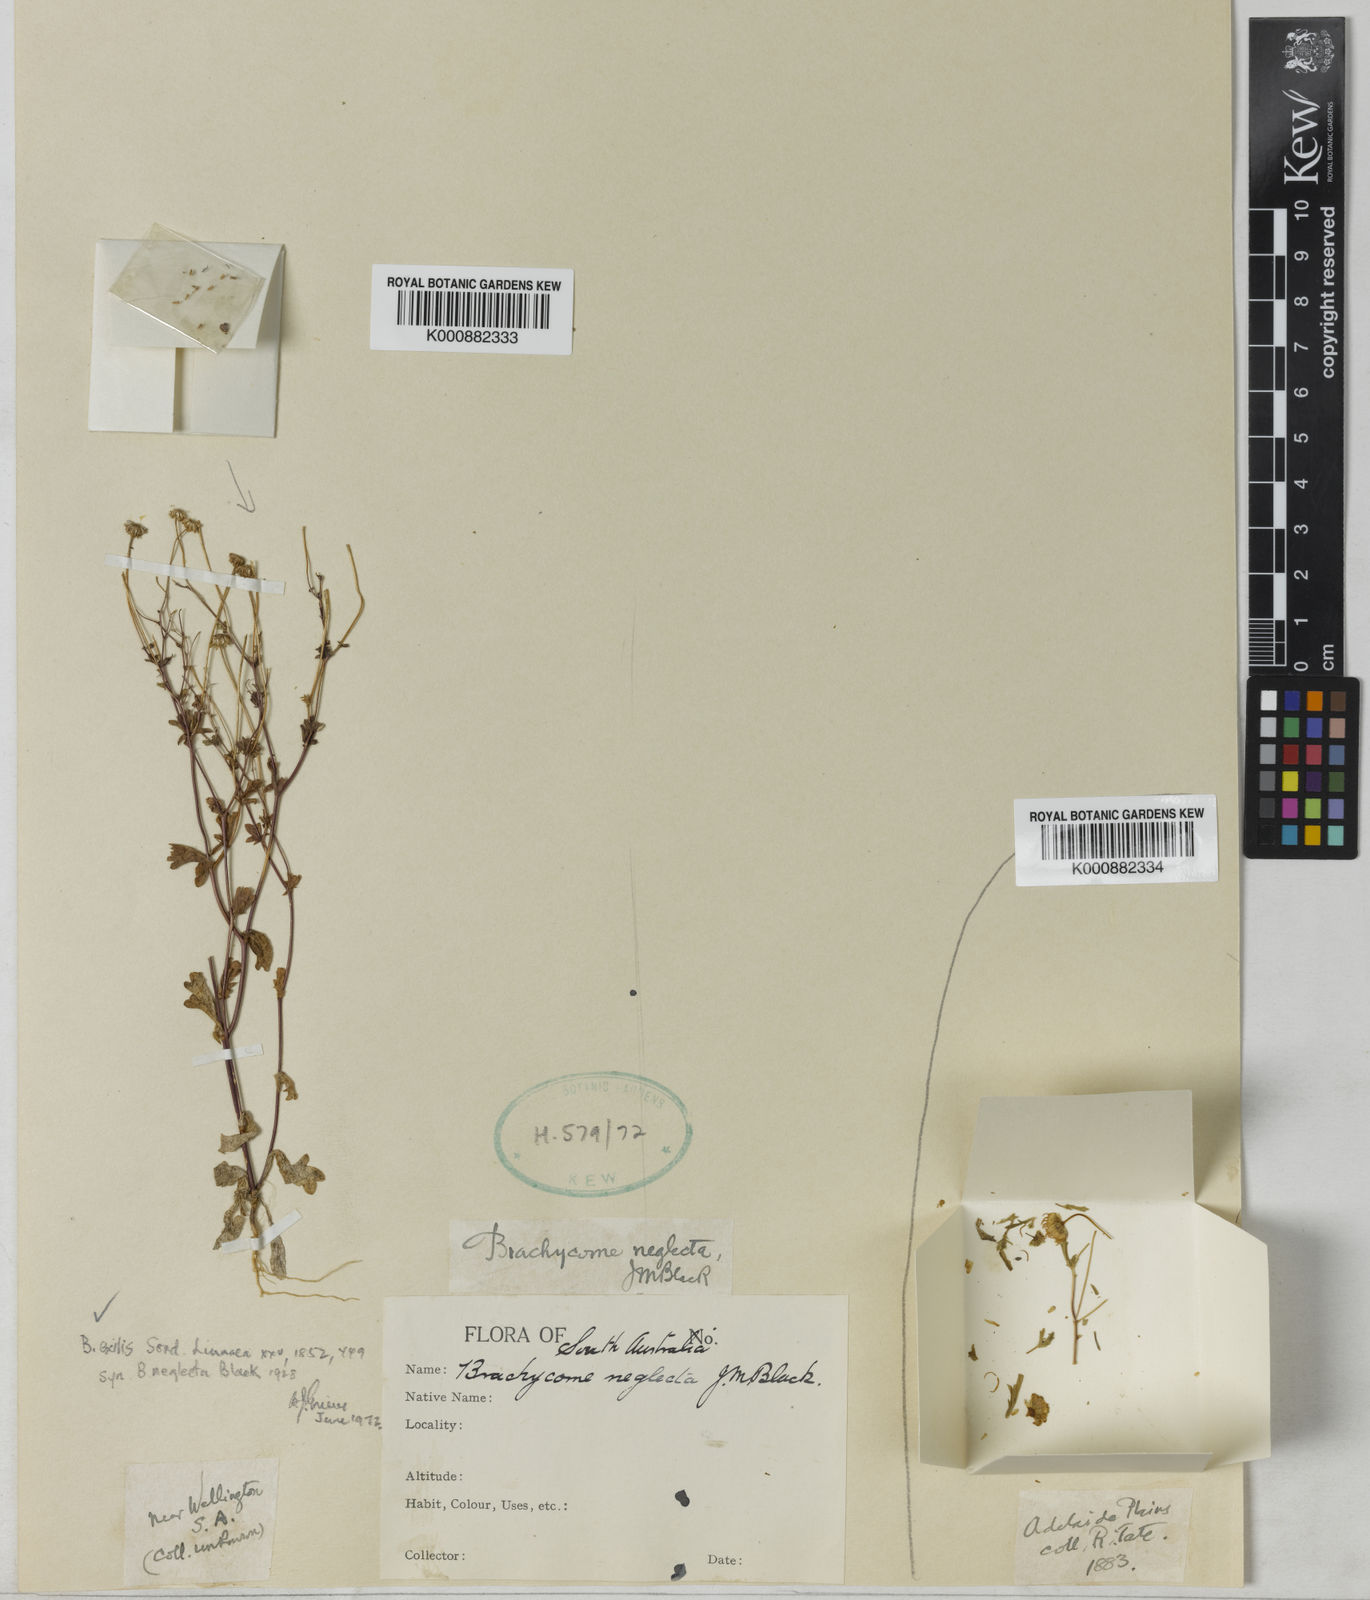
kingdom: Plantae
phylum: Tracheophyta
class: Magnoliopsida
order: Asterales
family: Asteraceae
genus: Brachyscome
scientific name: Brachyscome exilis
